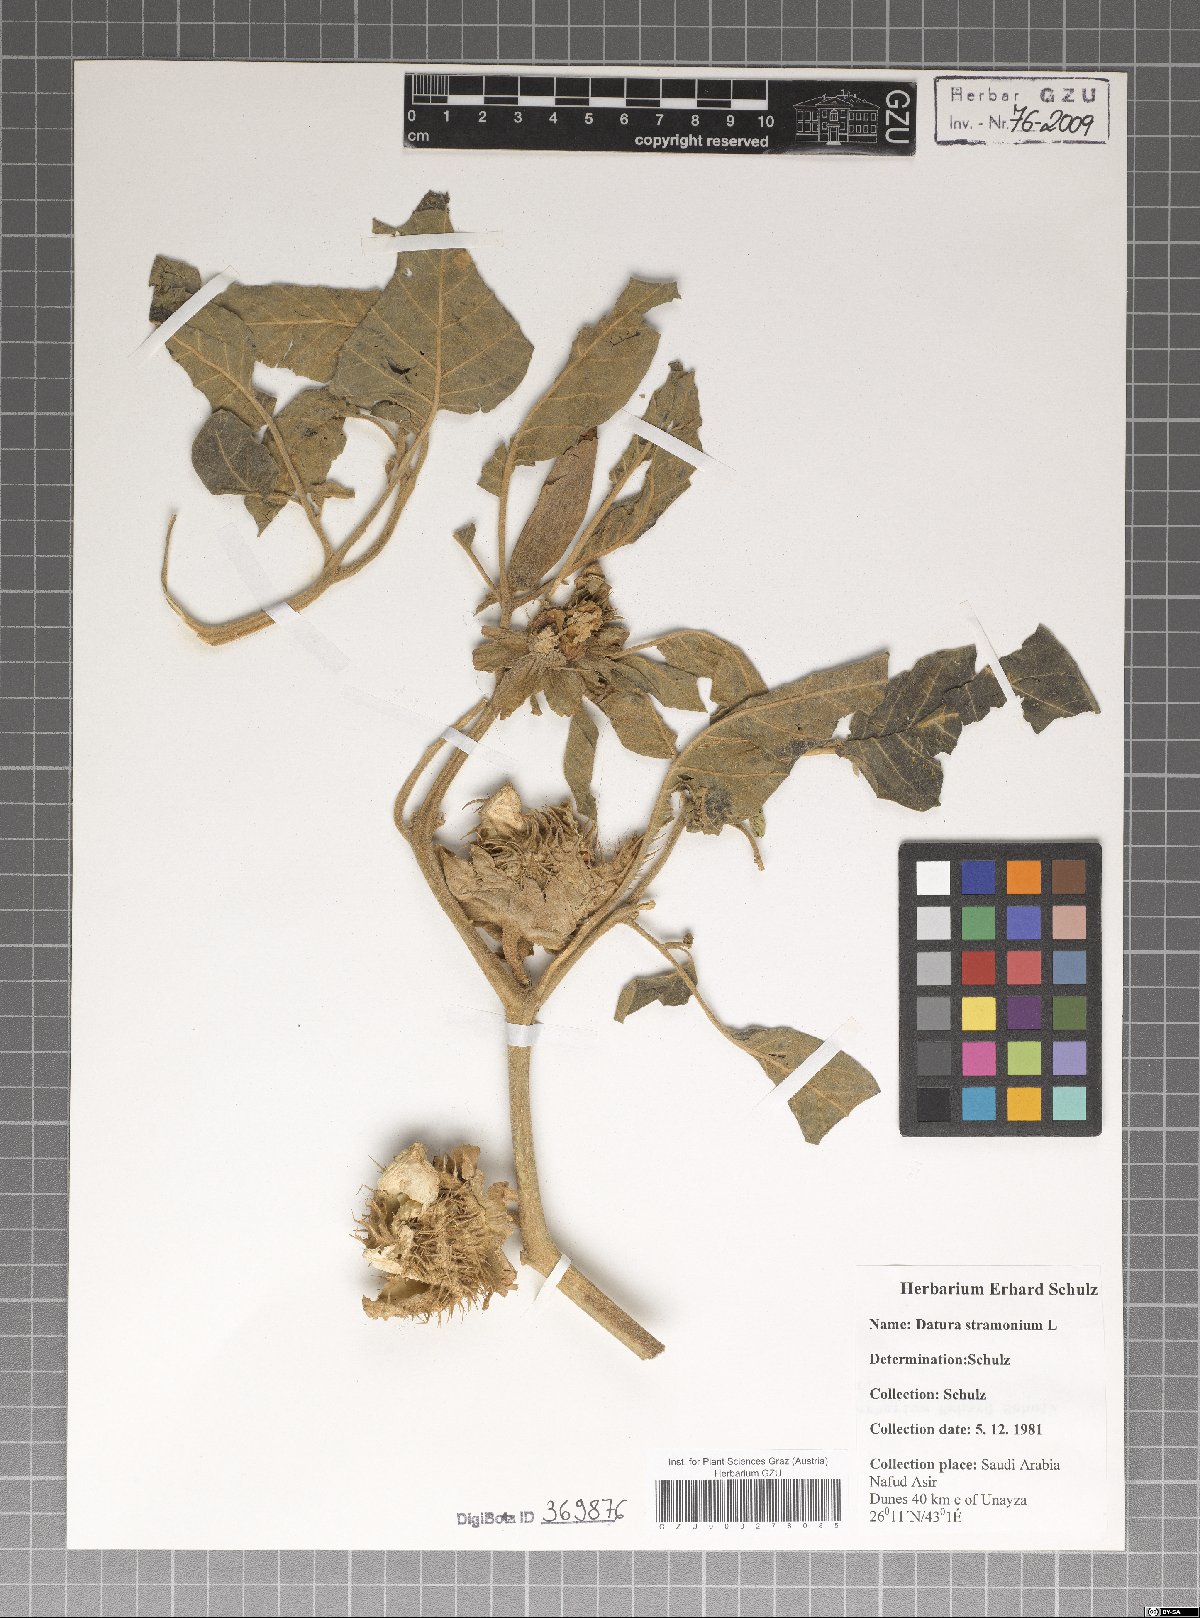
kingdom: Plantae
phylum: Tracheophyta
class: Magnoliopsida
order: Solanales
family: Solanaceae
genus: Datura
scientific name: Datura stramonium
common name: Thorn-apple
